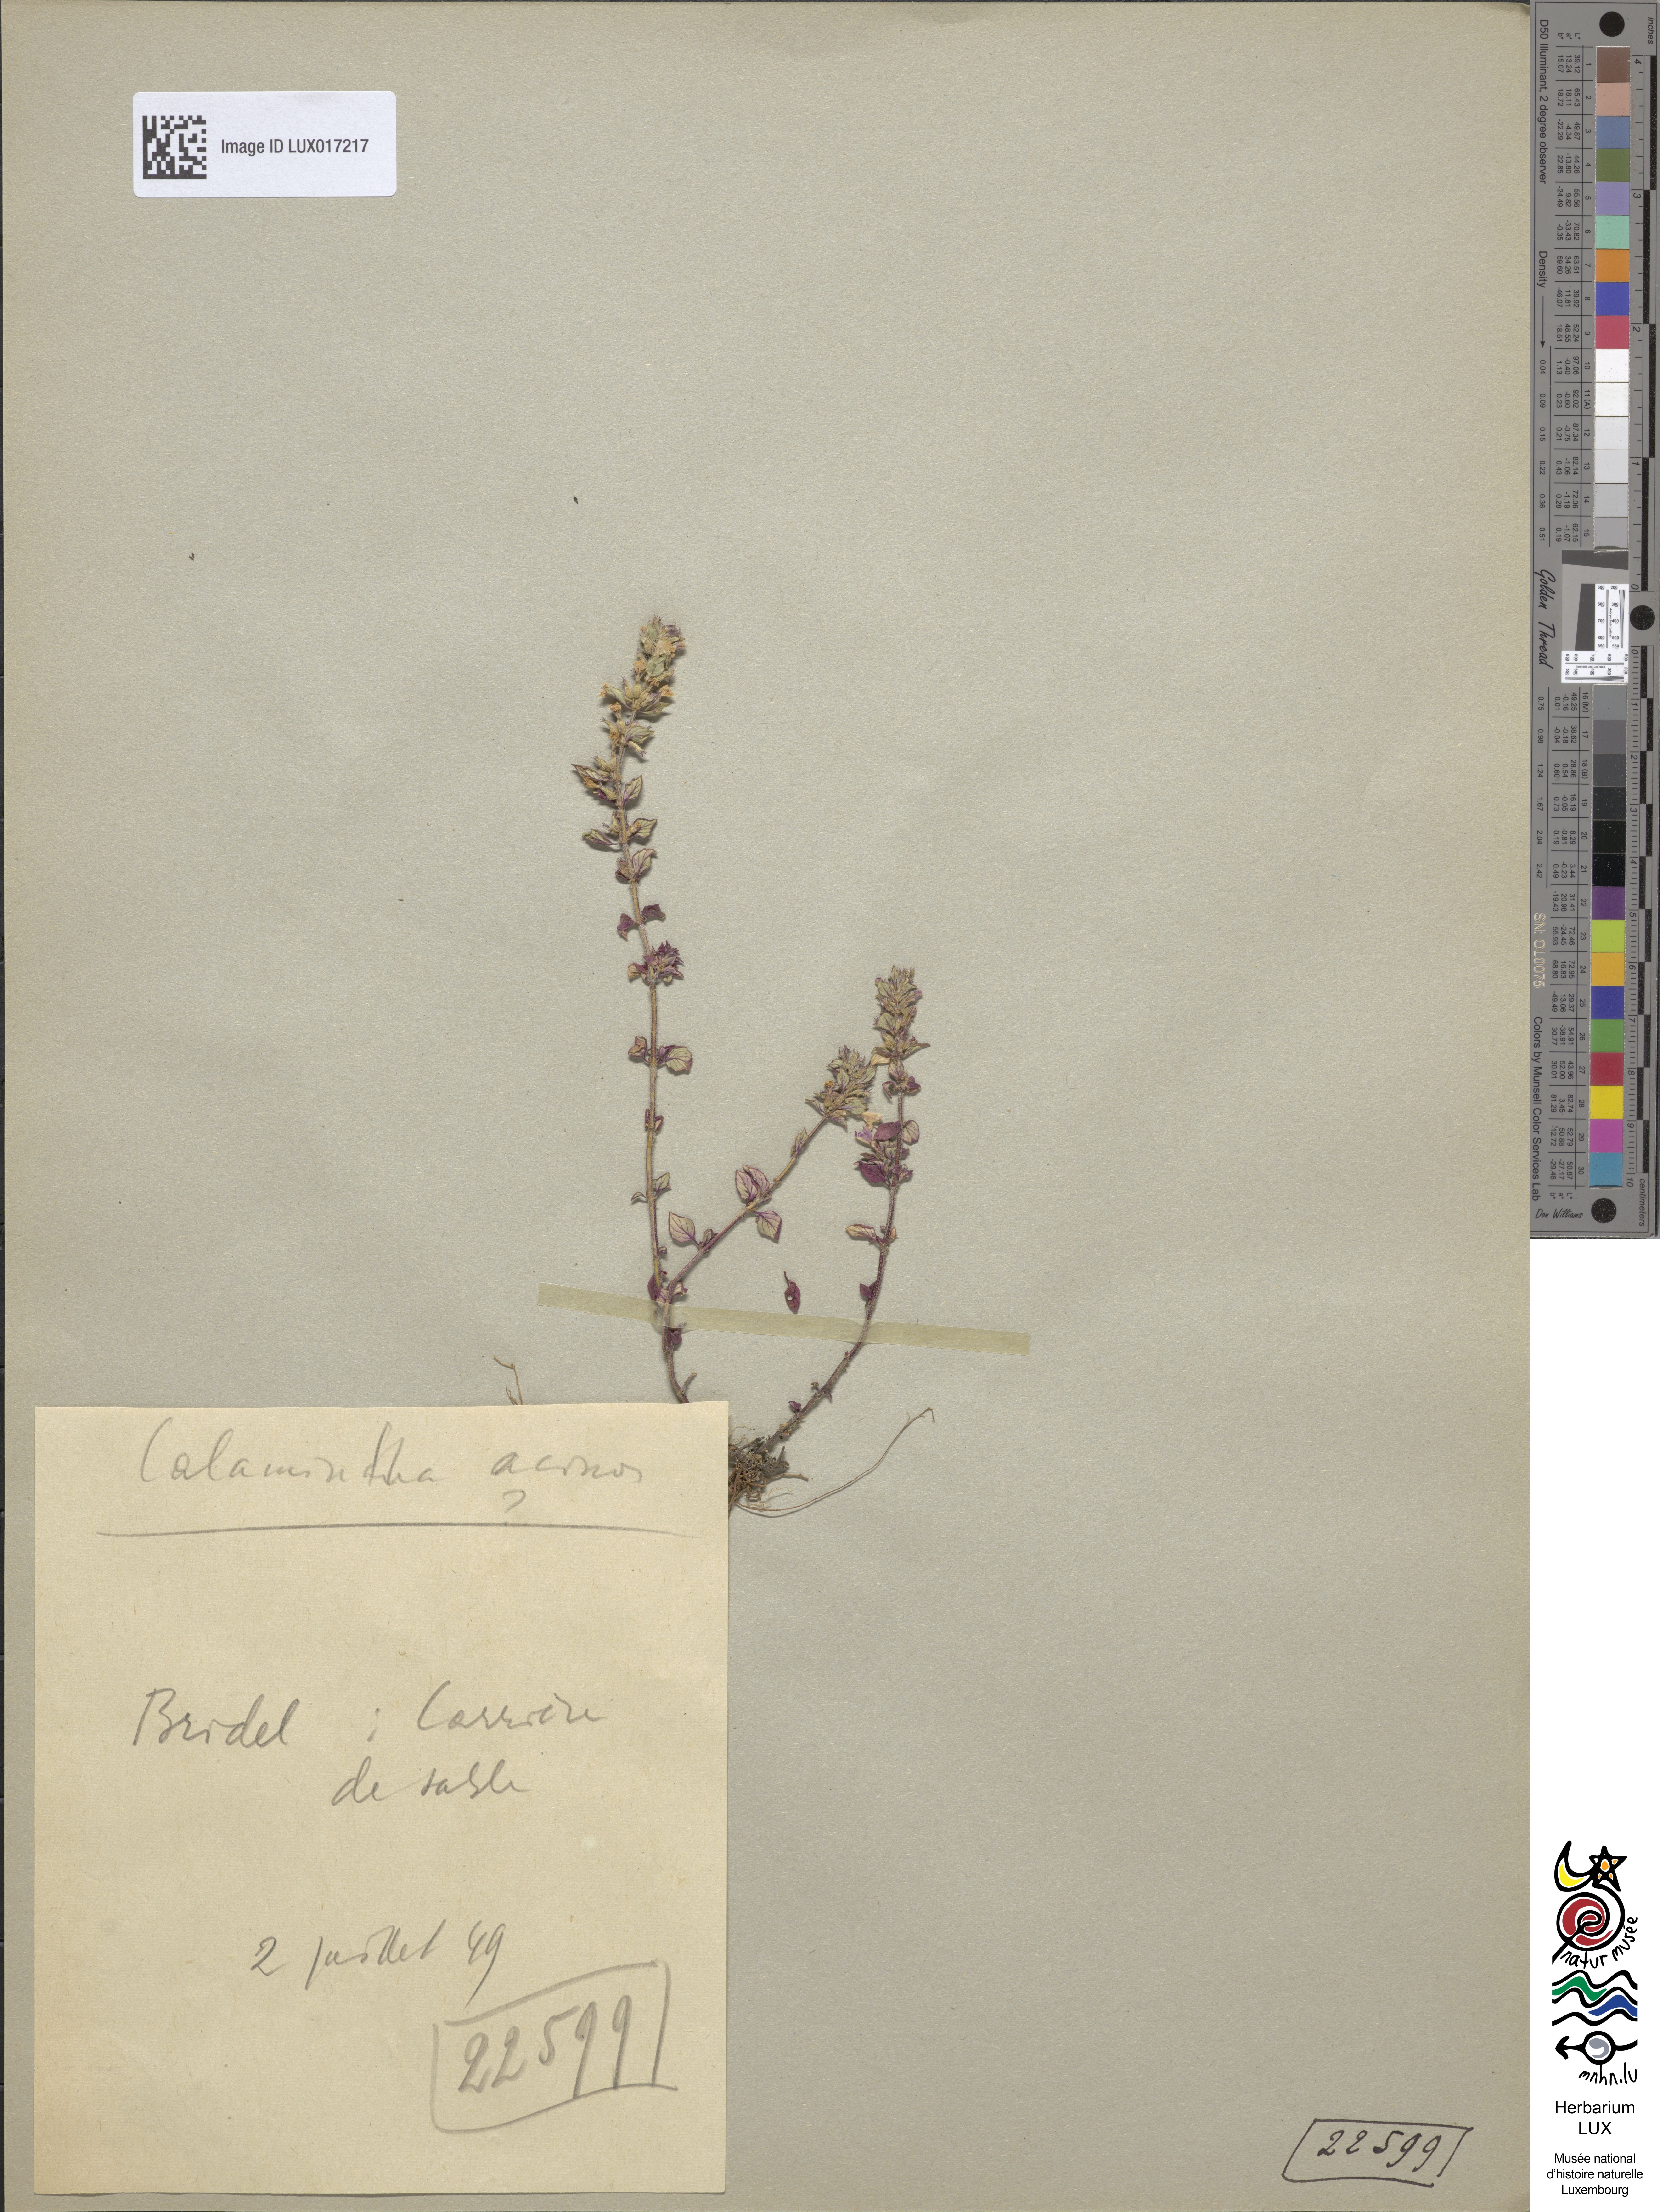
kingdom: Plantae
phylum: Tracheophyta
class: Magnoliopsida
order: Lamiales
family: Lamiaceae
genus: Clinopodium
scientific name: Clinopodium acinos
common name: Basil thyme
